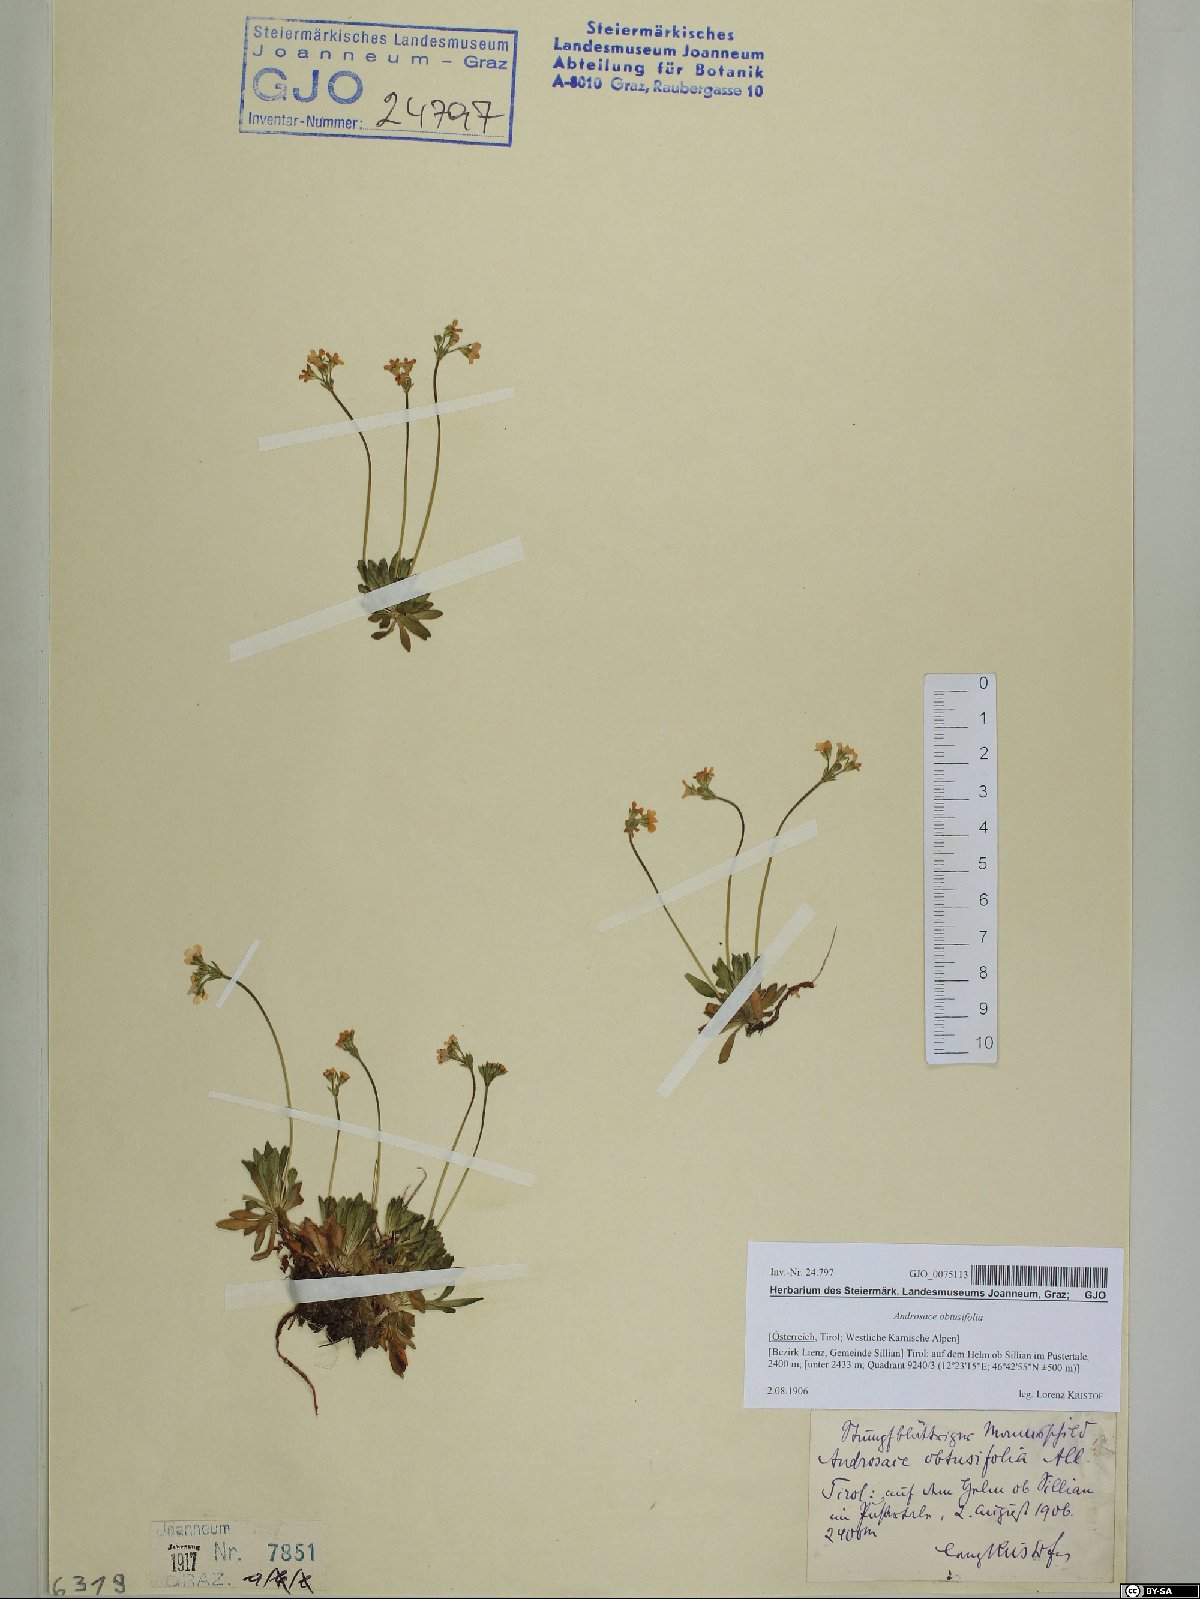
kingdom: Plantae
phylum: Tracheophyta
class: Magnoliopsida
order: Ericales
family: Primulaceae
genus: Androsace
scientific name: Androsace obtusifolia
